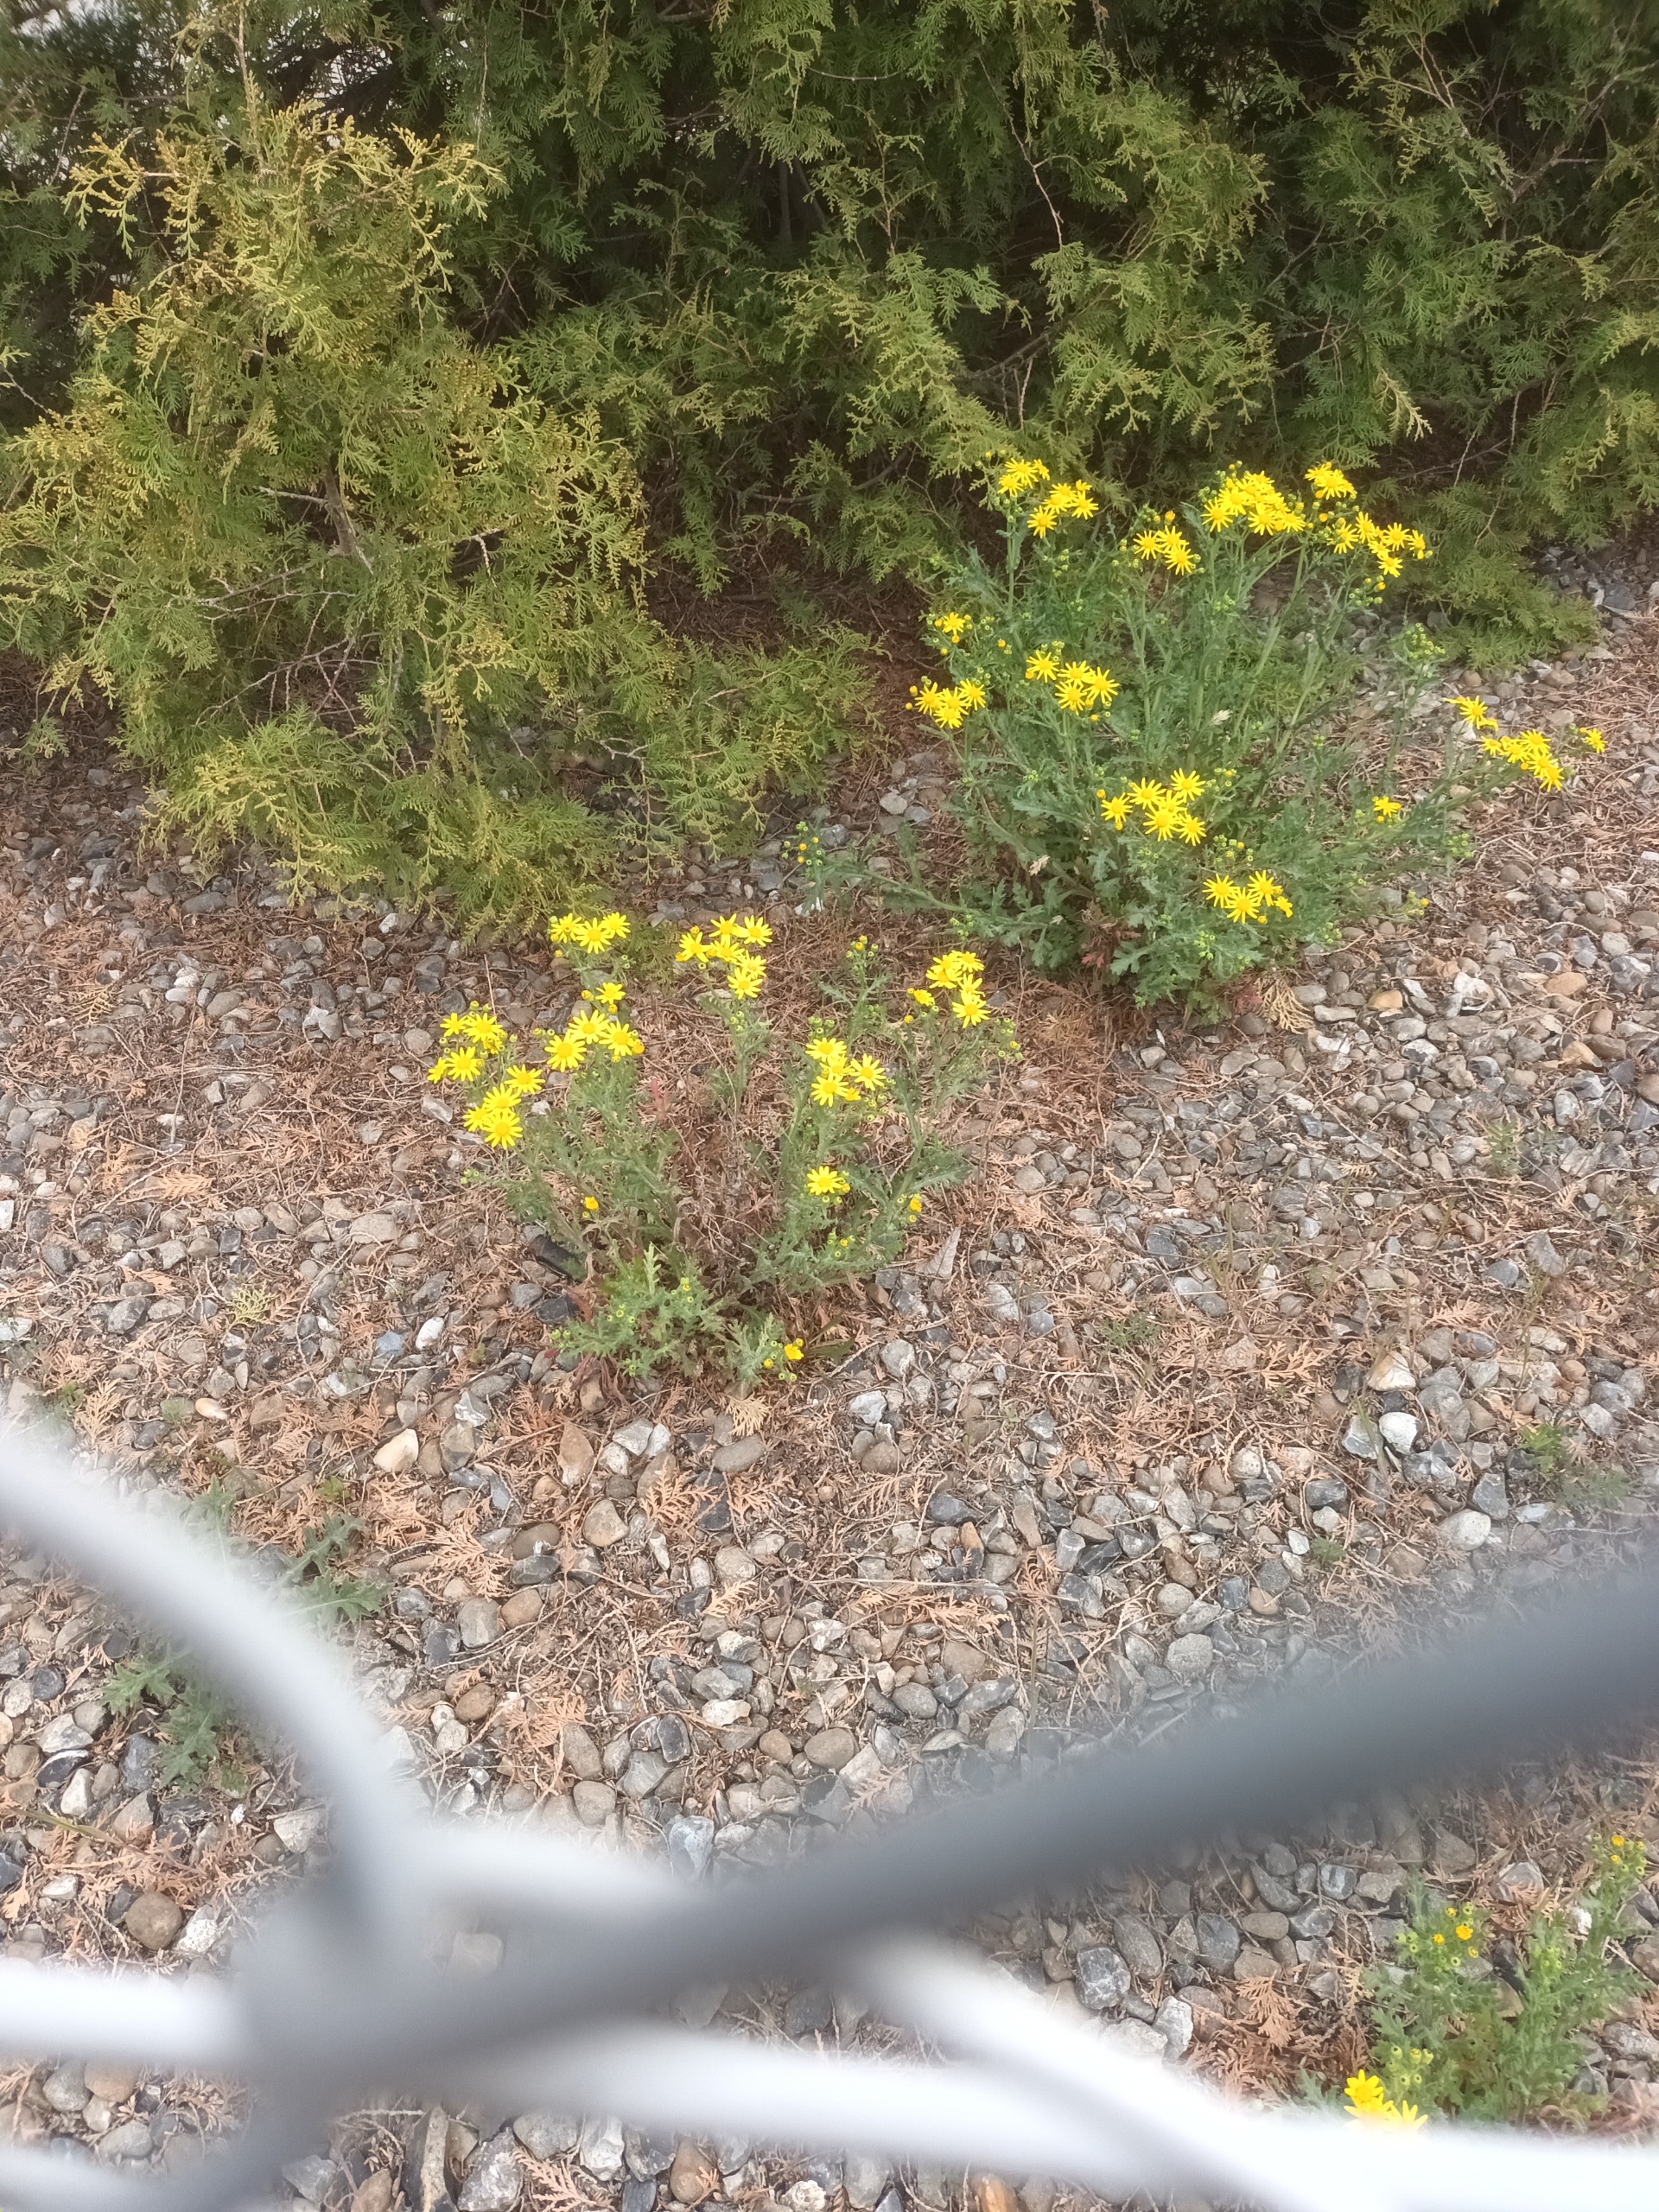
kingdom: Plantae
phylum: Tracheophyta
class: Magnoliopsida
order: Asterales
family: Asteraceae
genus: Senecio
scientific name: Senecio squalidus
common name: Italiensk brandbæger
